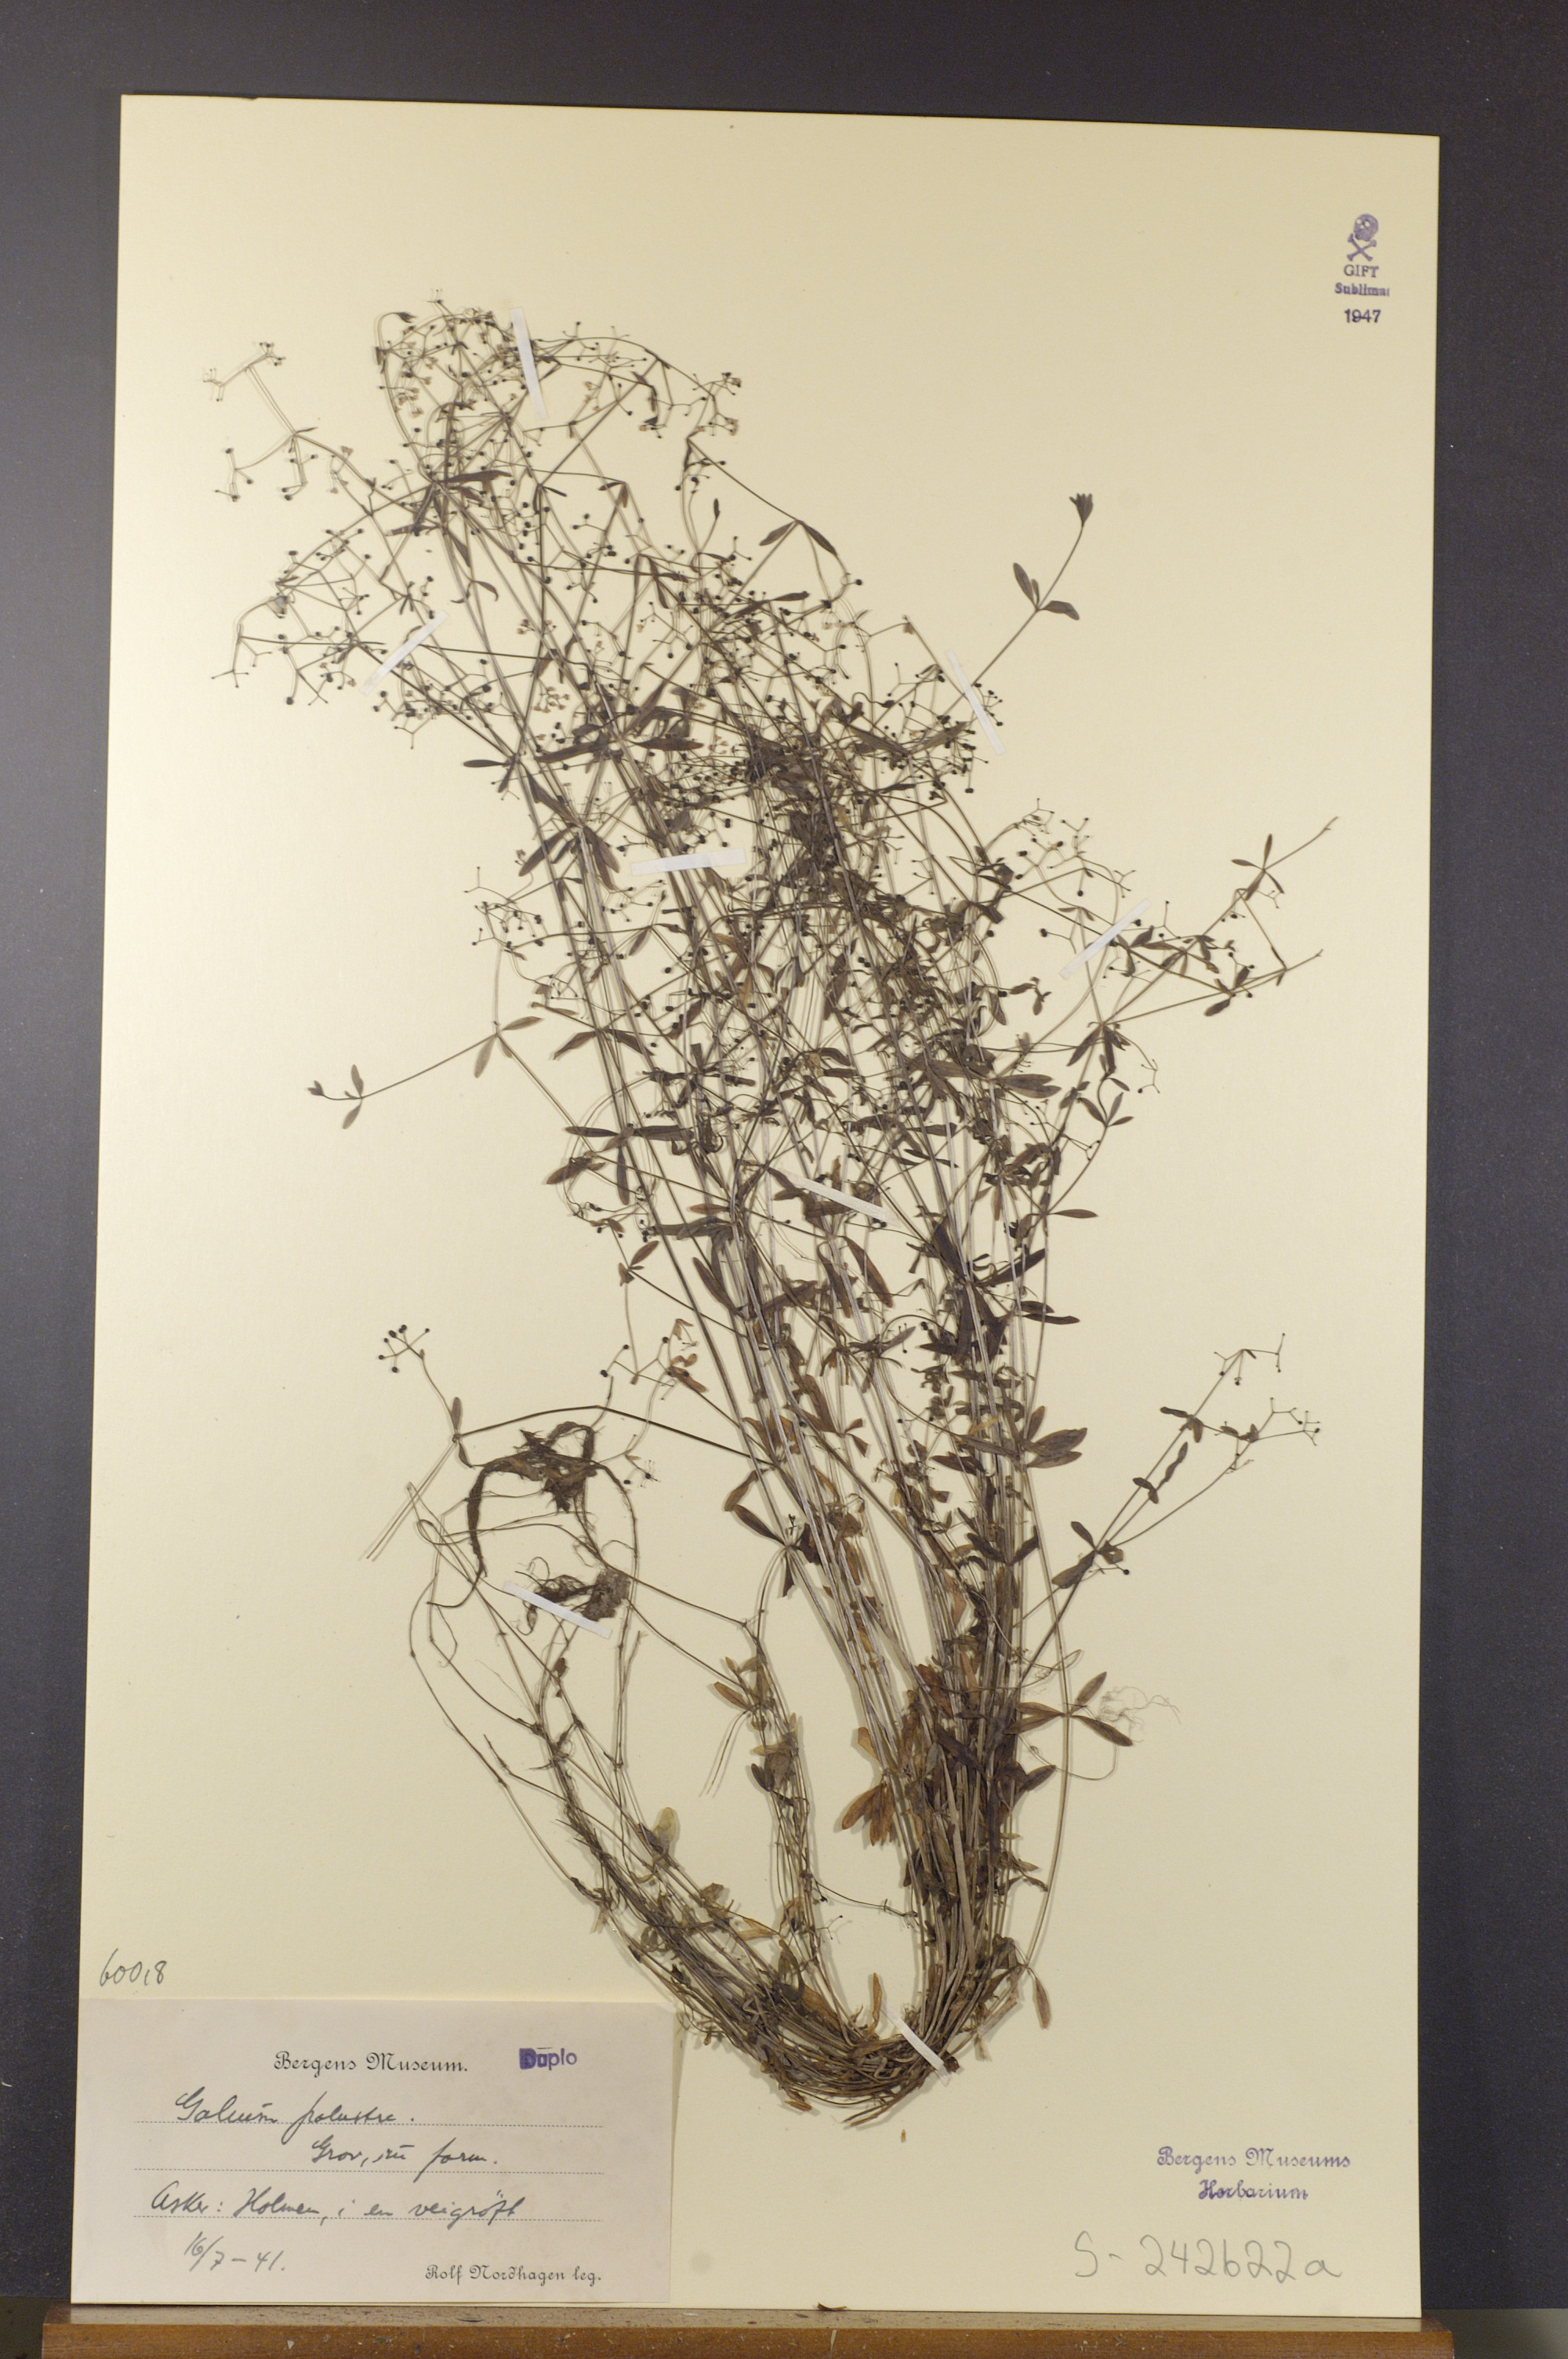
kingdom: Plantae
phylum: Tracheophyta
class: Magnoliopsida
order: Gentianales
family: Rubiaceae
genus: Galium
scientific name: Galium palustre
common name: Common marsh-bedstraw
